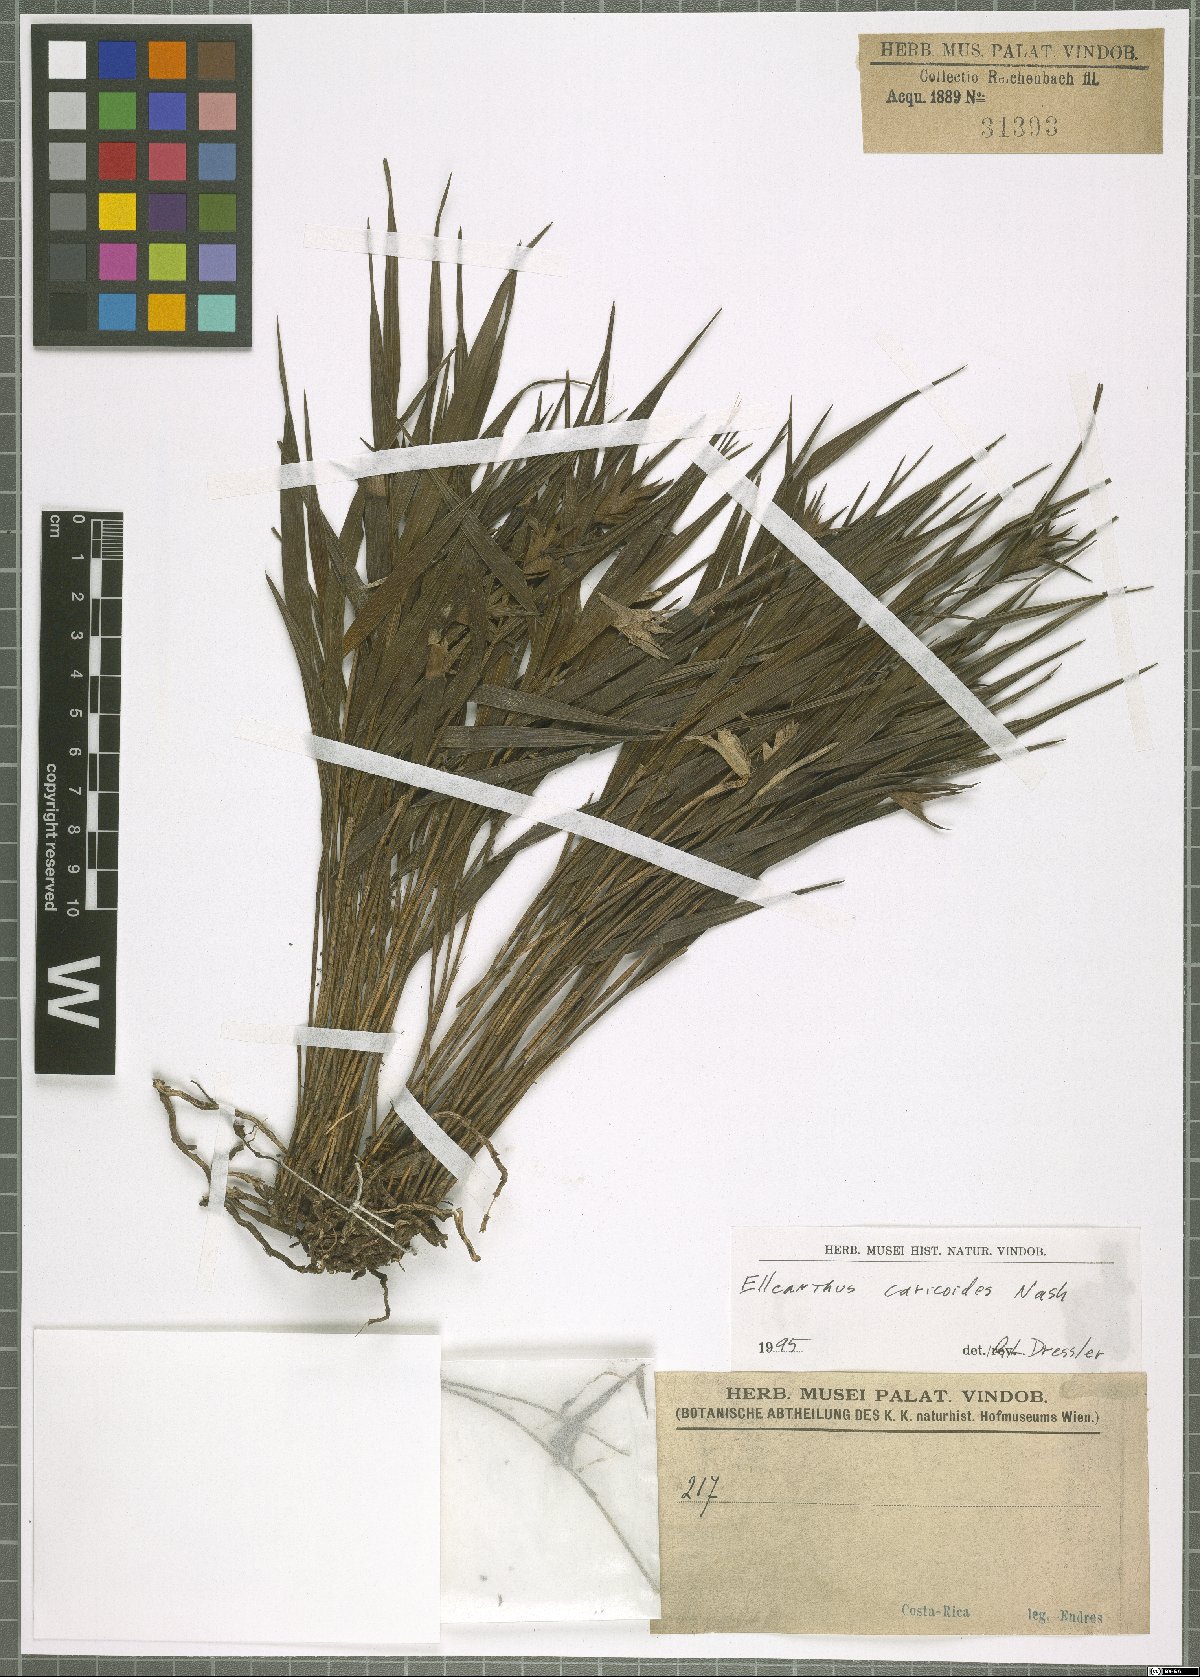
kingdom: Plantae
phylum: Tracheophyta
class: Liliopsida
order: Asparagales
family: Orchidaceae
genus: Elleanthus
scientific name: Elleanthus caricoides
